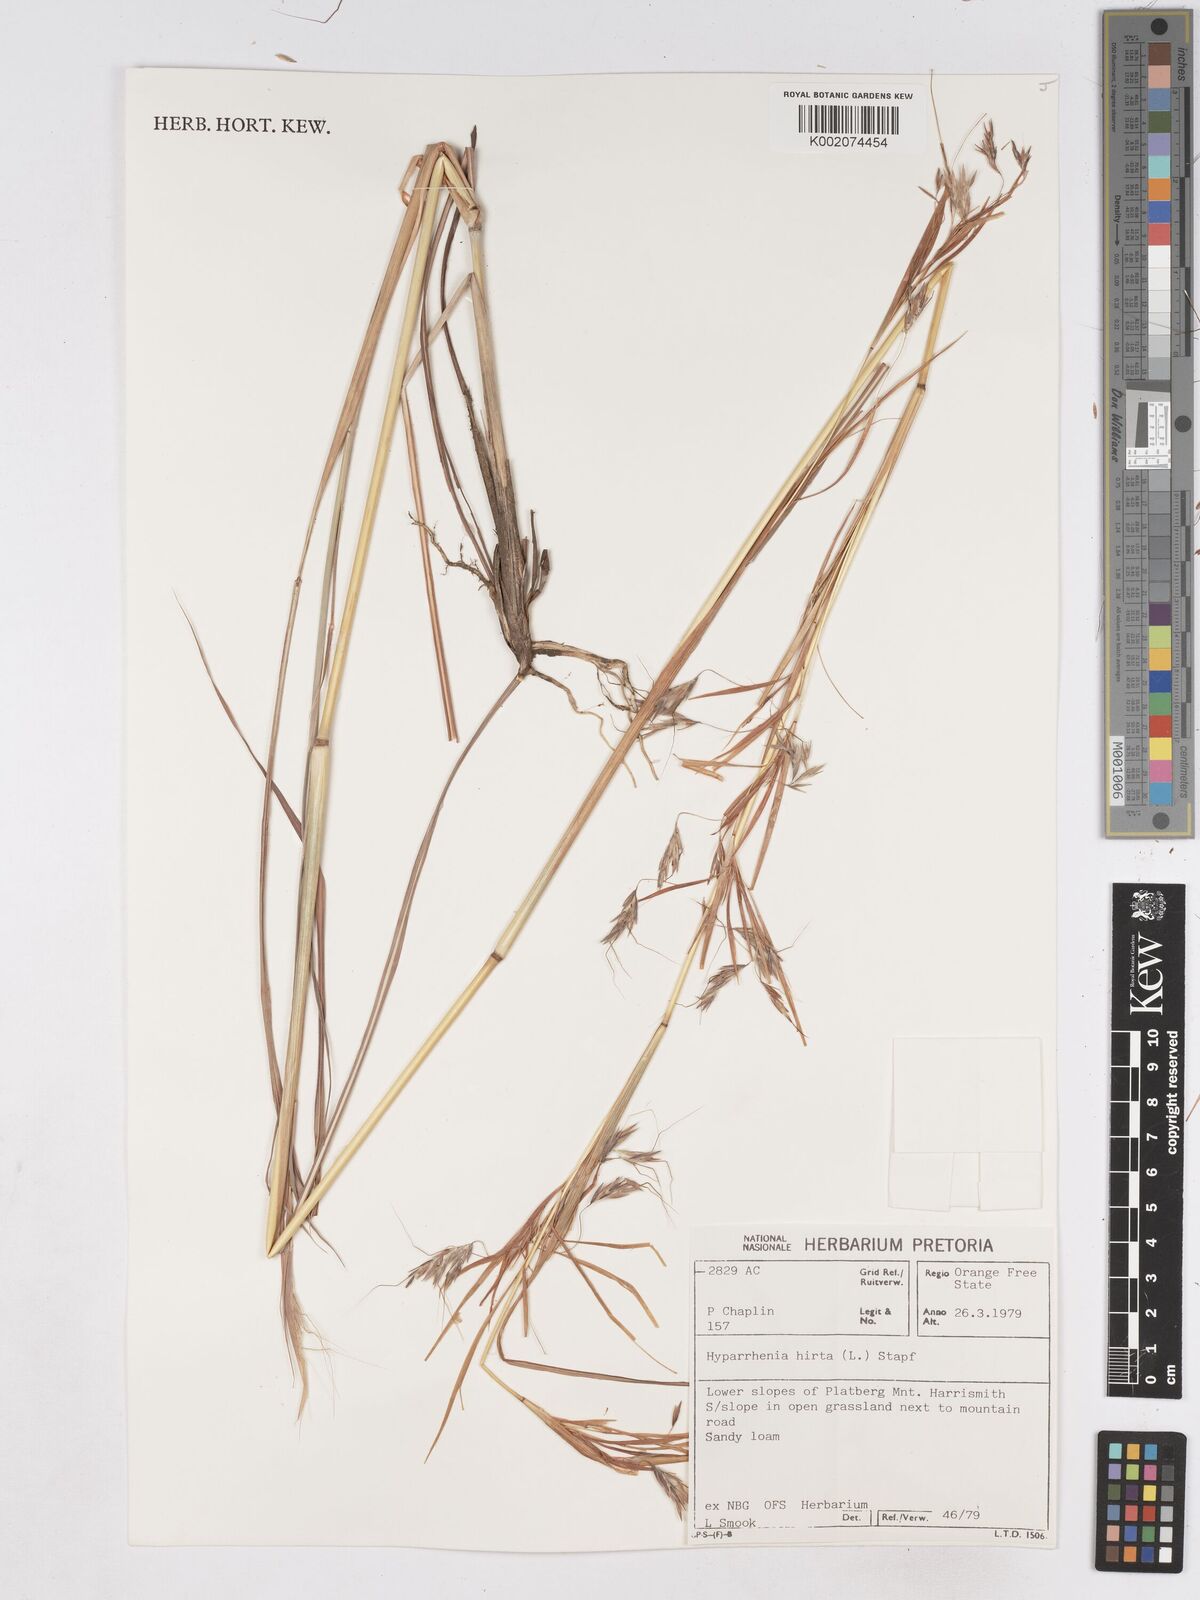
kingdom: Plantae
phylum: Tracheophyta
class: Liliopsida
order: Poales
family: Poaceae
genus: Hyparrhenia
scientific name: Hyparrhenia hirta
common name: Thatching grass
